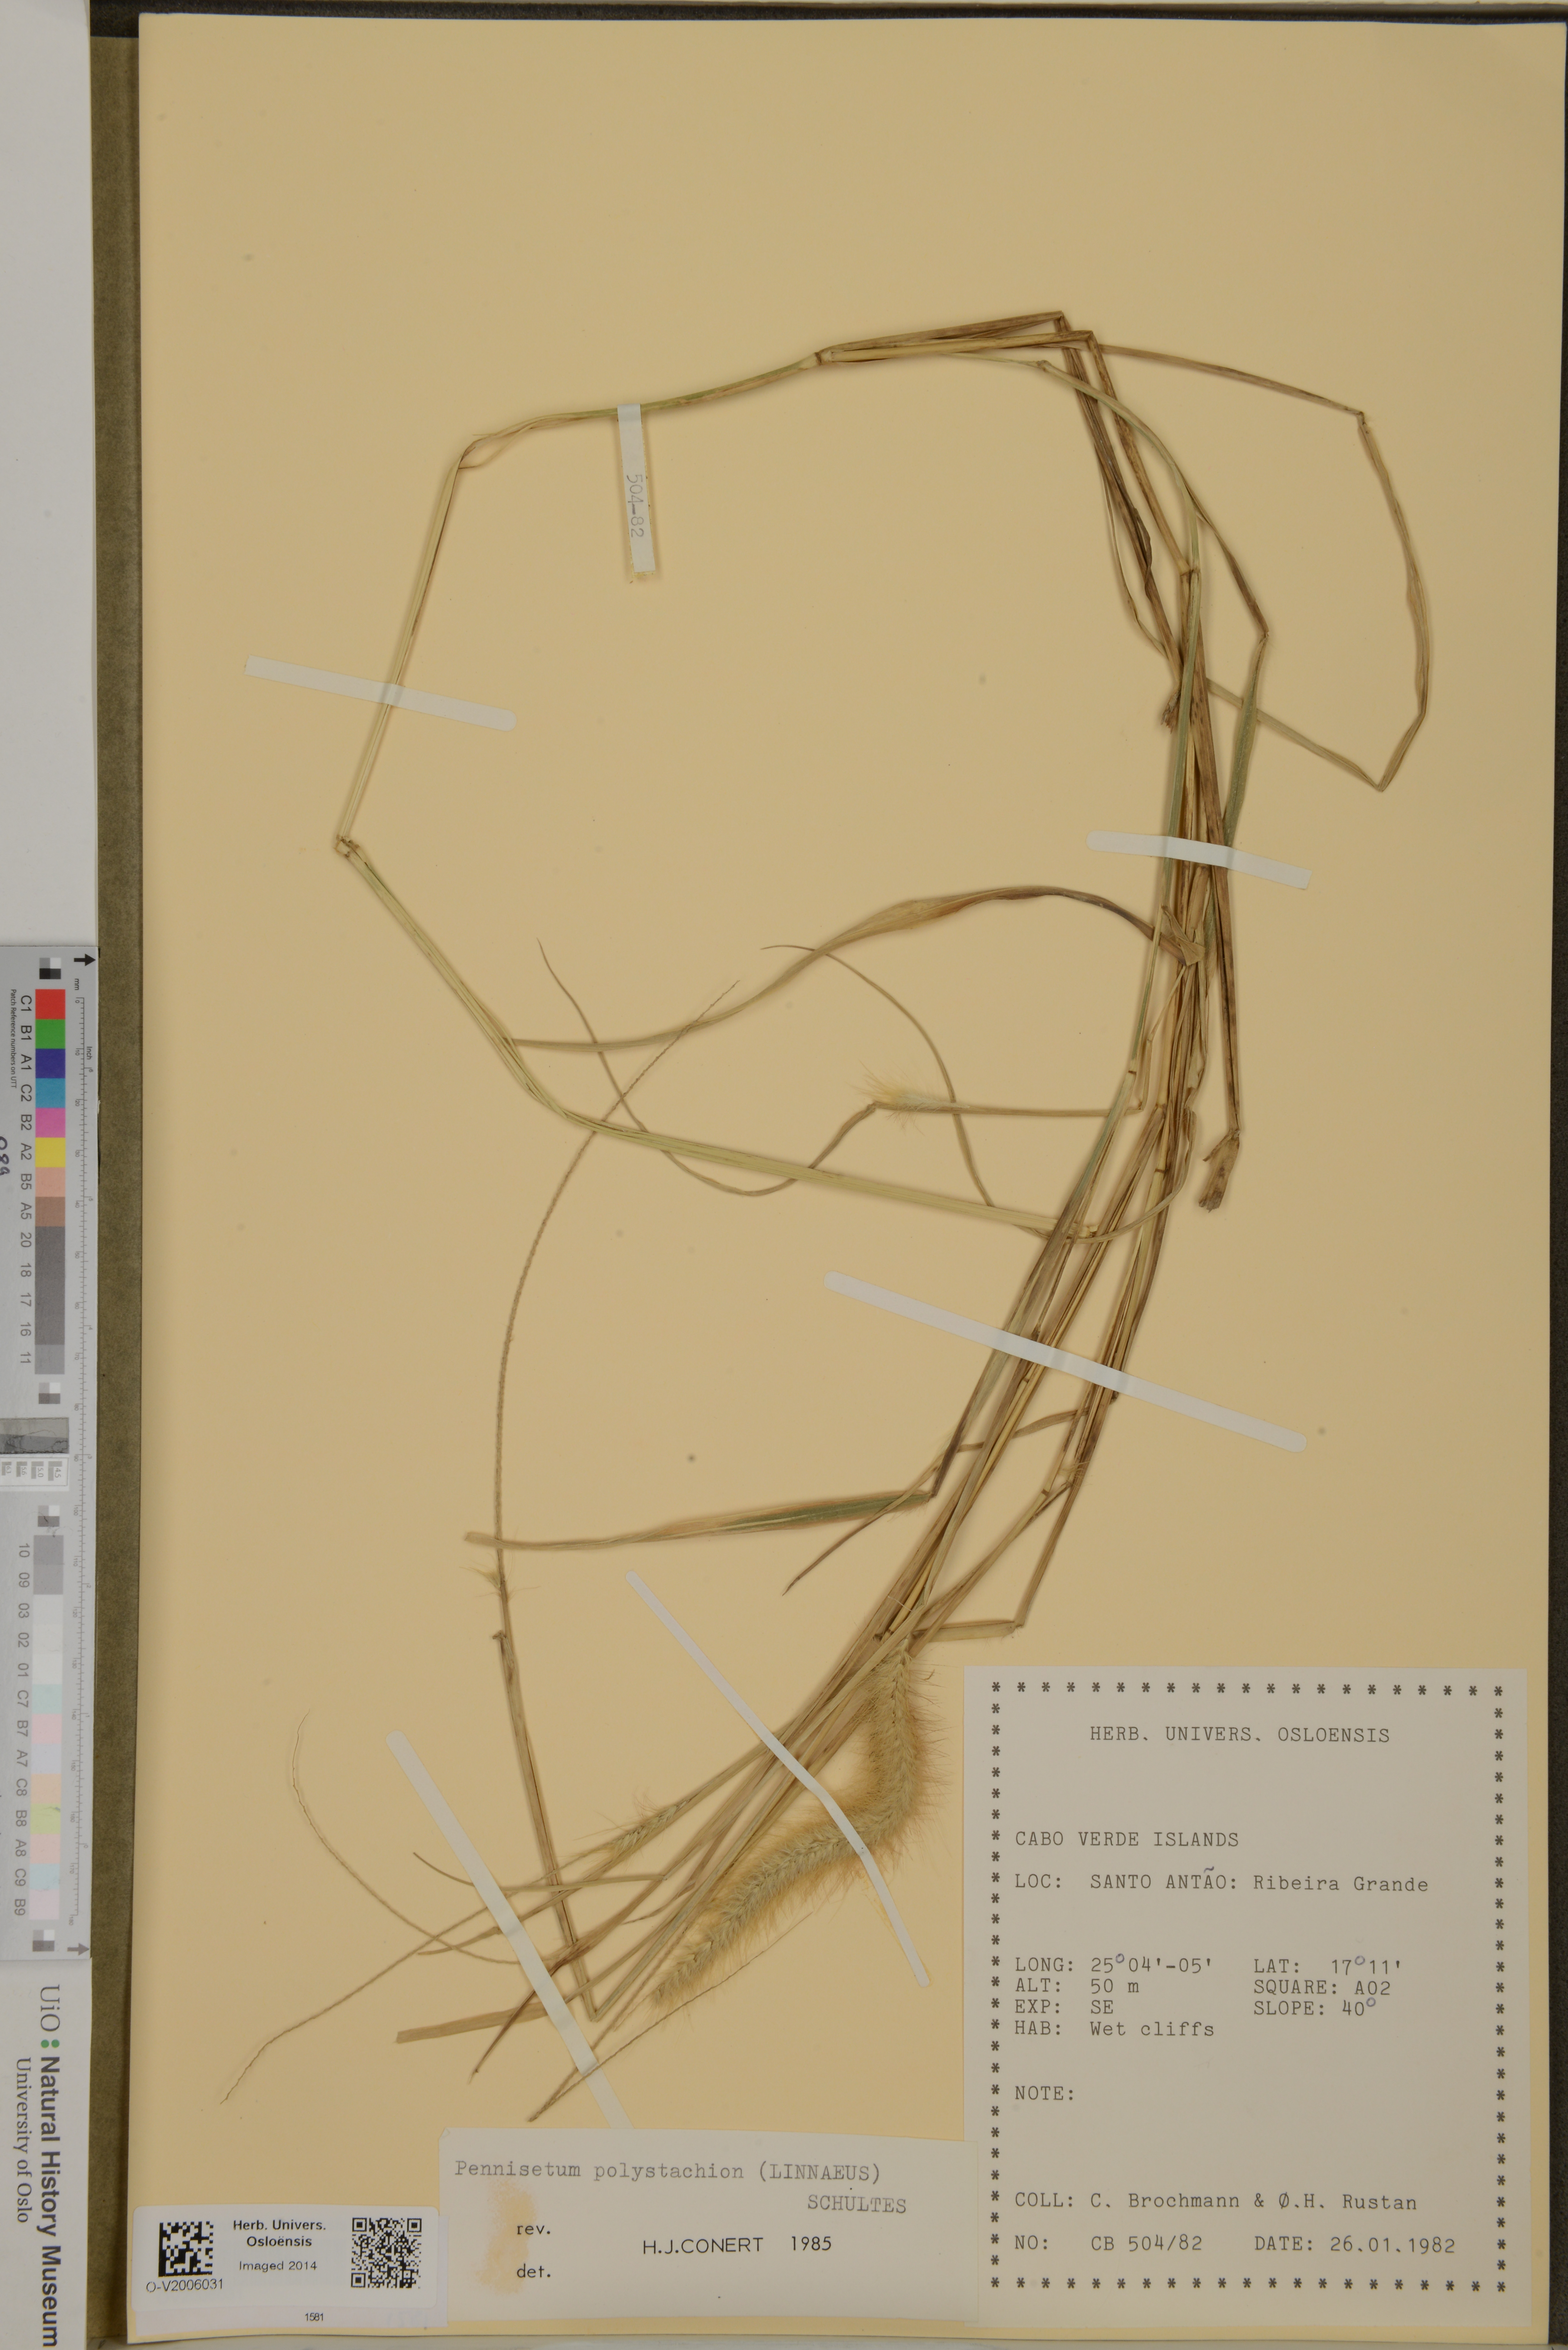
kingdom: Plantae
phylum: Tracheophyta
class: Liliopsida
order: Poales
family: Poaceae
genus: Setaria
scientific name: Setaria parviflora
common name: Knotroot bristle-grass
